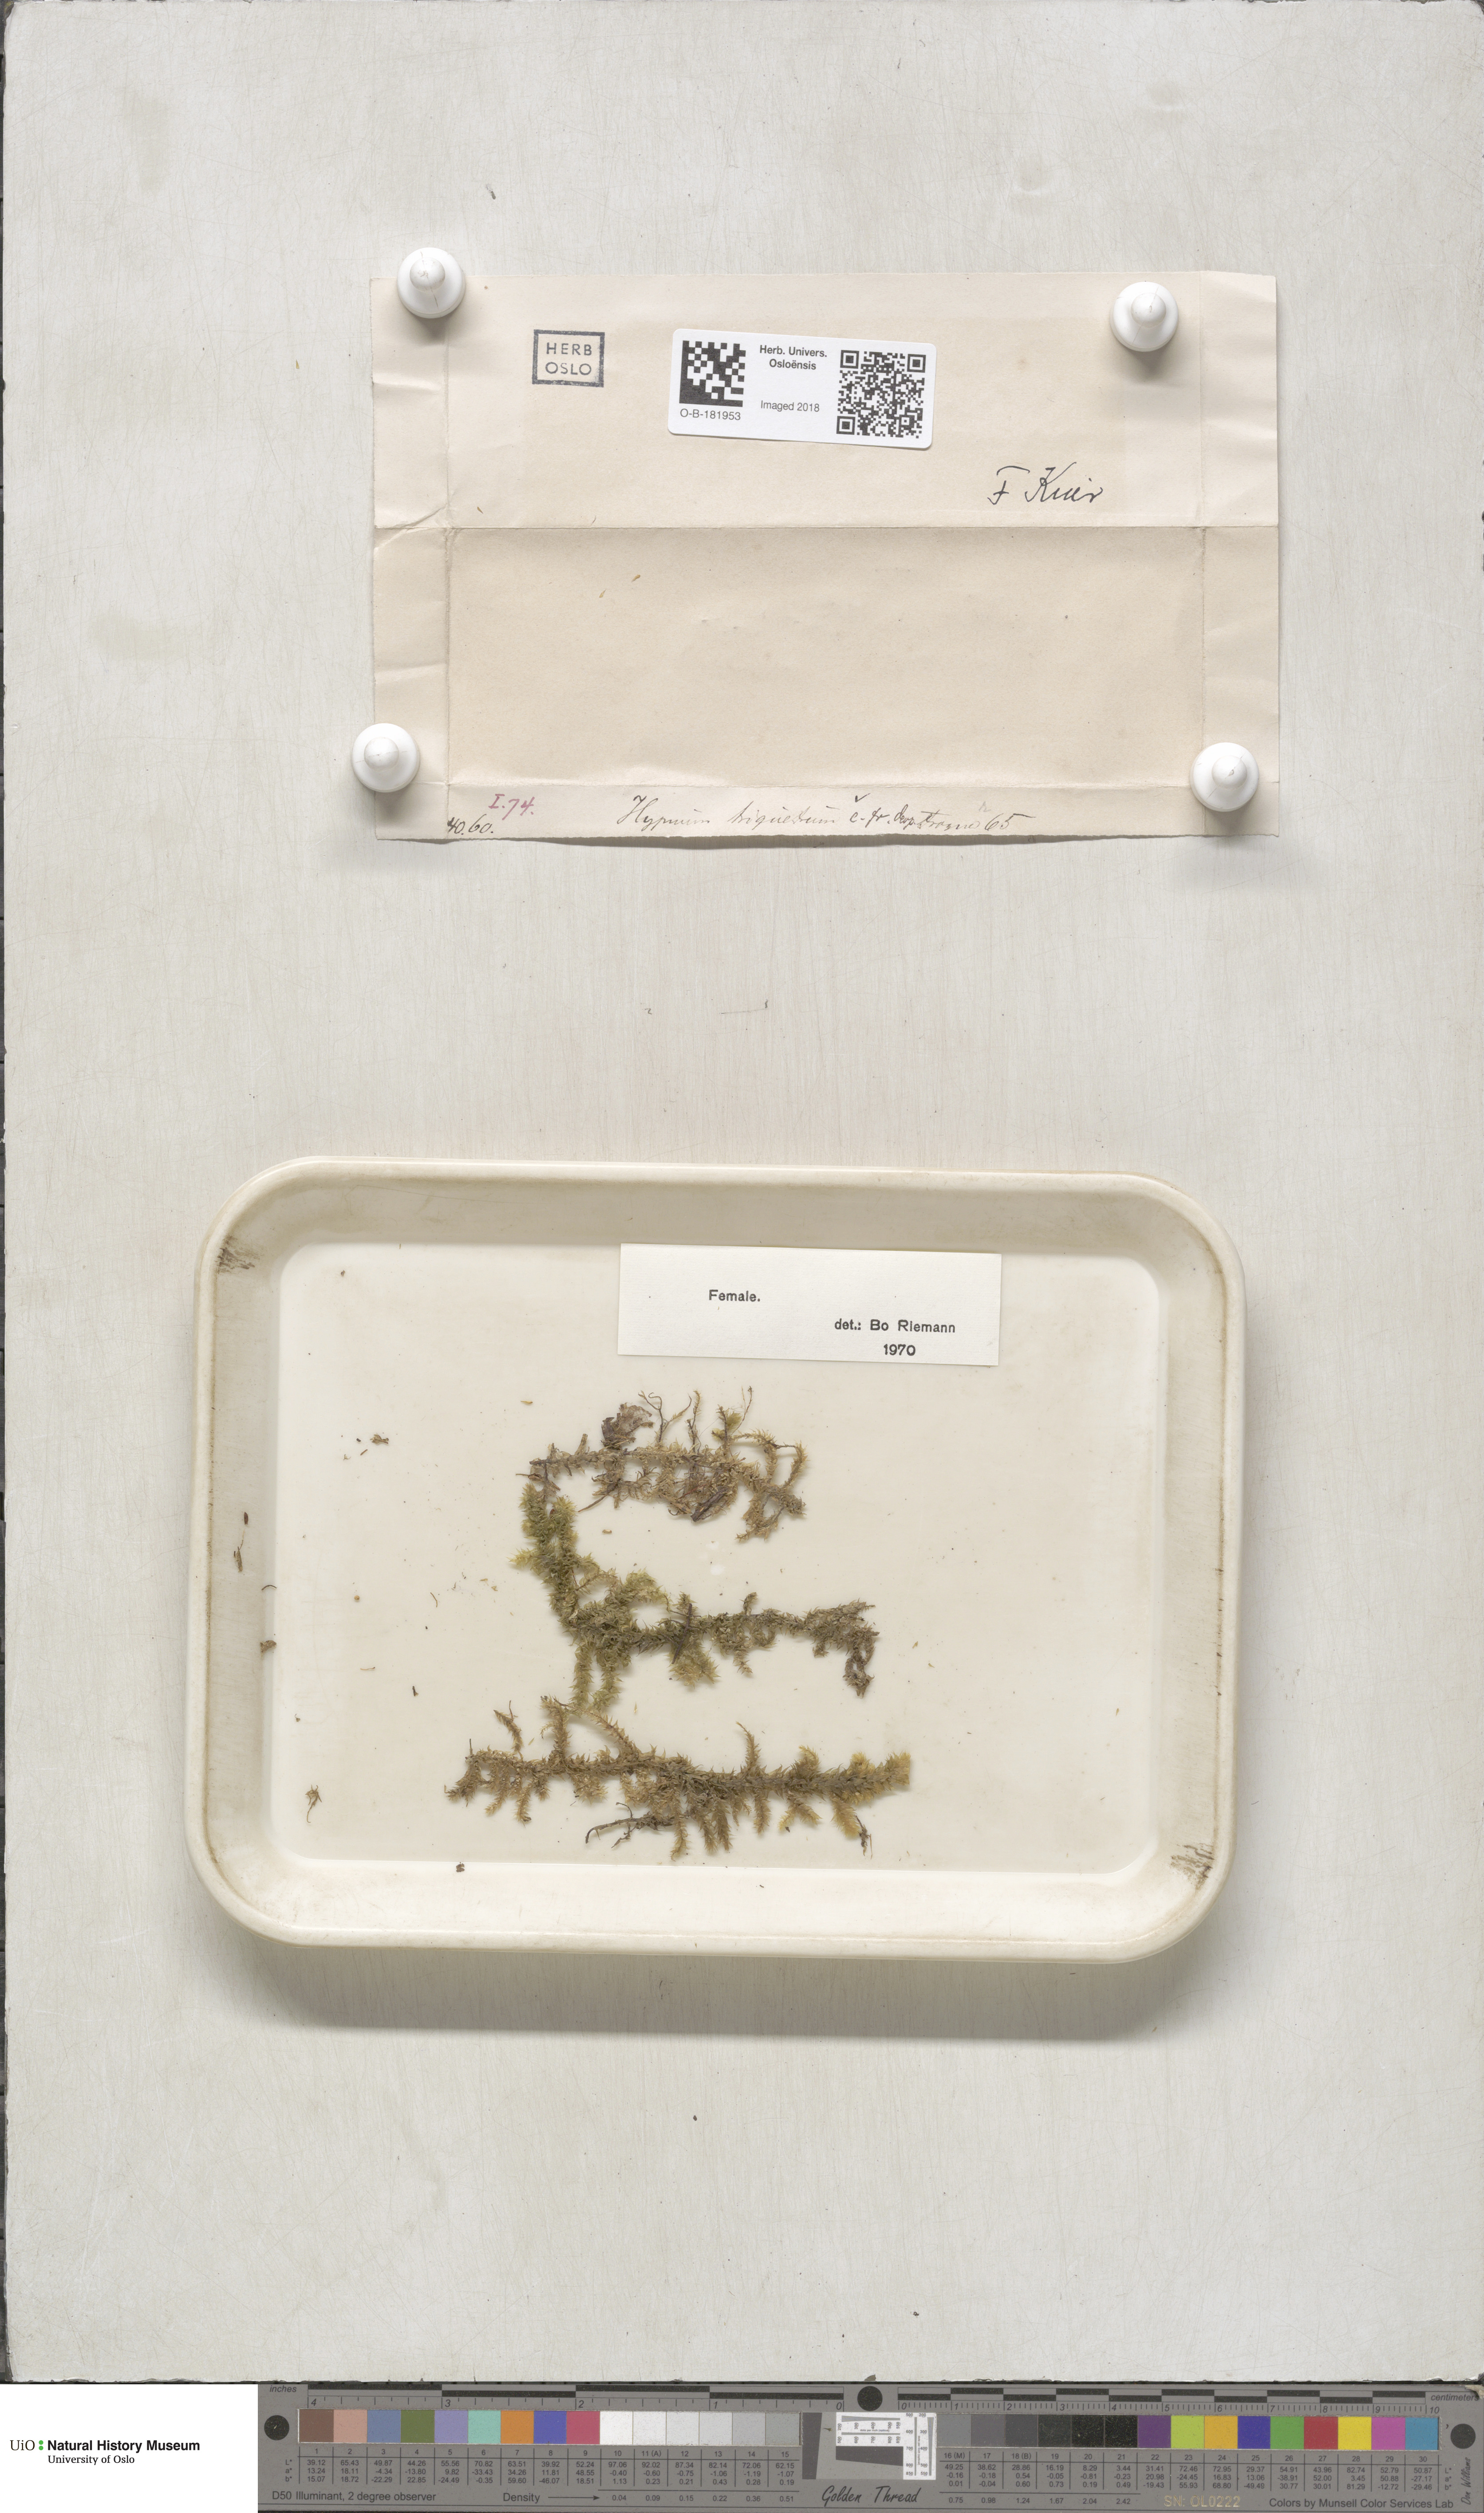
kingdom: Plantae
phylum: Bryophyta
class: Bryopsida
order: Hypnales
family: Hylocomiaceae
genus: Hylocomiadelphus
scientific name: Hylocomiadelphus triquetrus
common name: Rough goose neck moss
